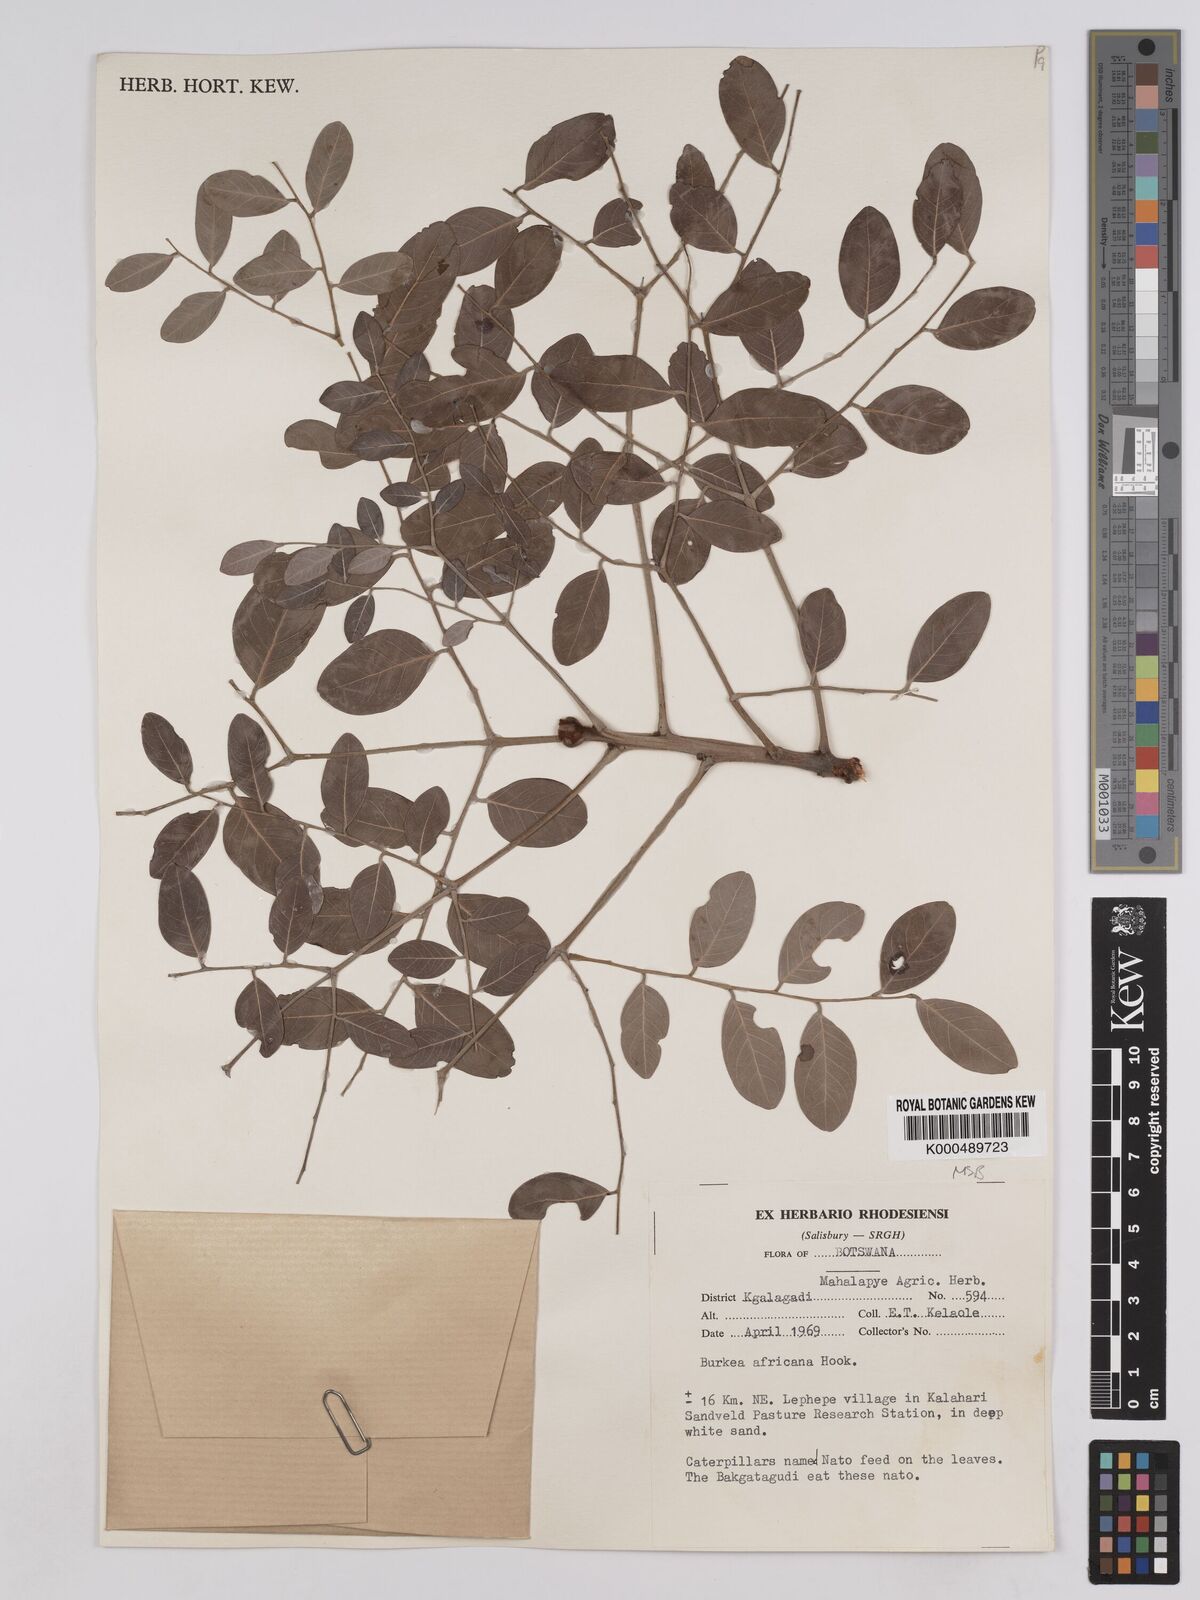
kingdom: Plantae
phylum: Tracheophyta
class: Magnoliopsida
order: Fabales
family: Fabaceae
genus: Burkea
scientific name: Burkea africana
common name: Mkalati tree
